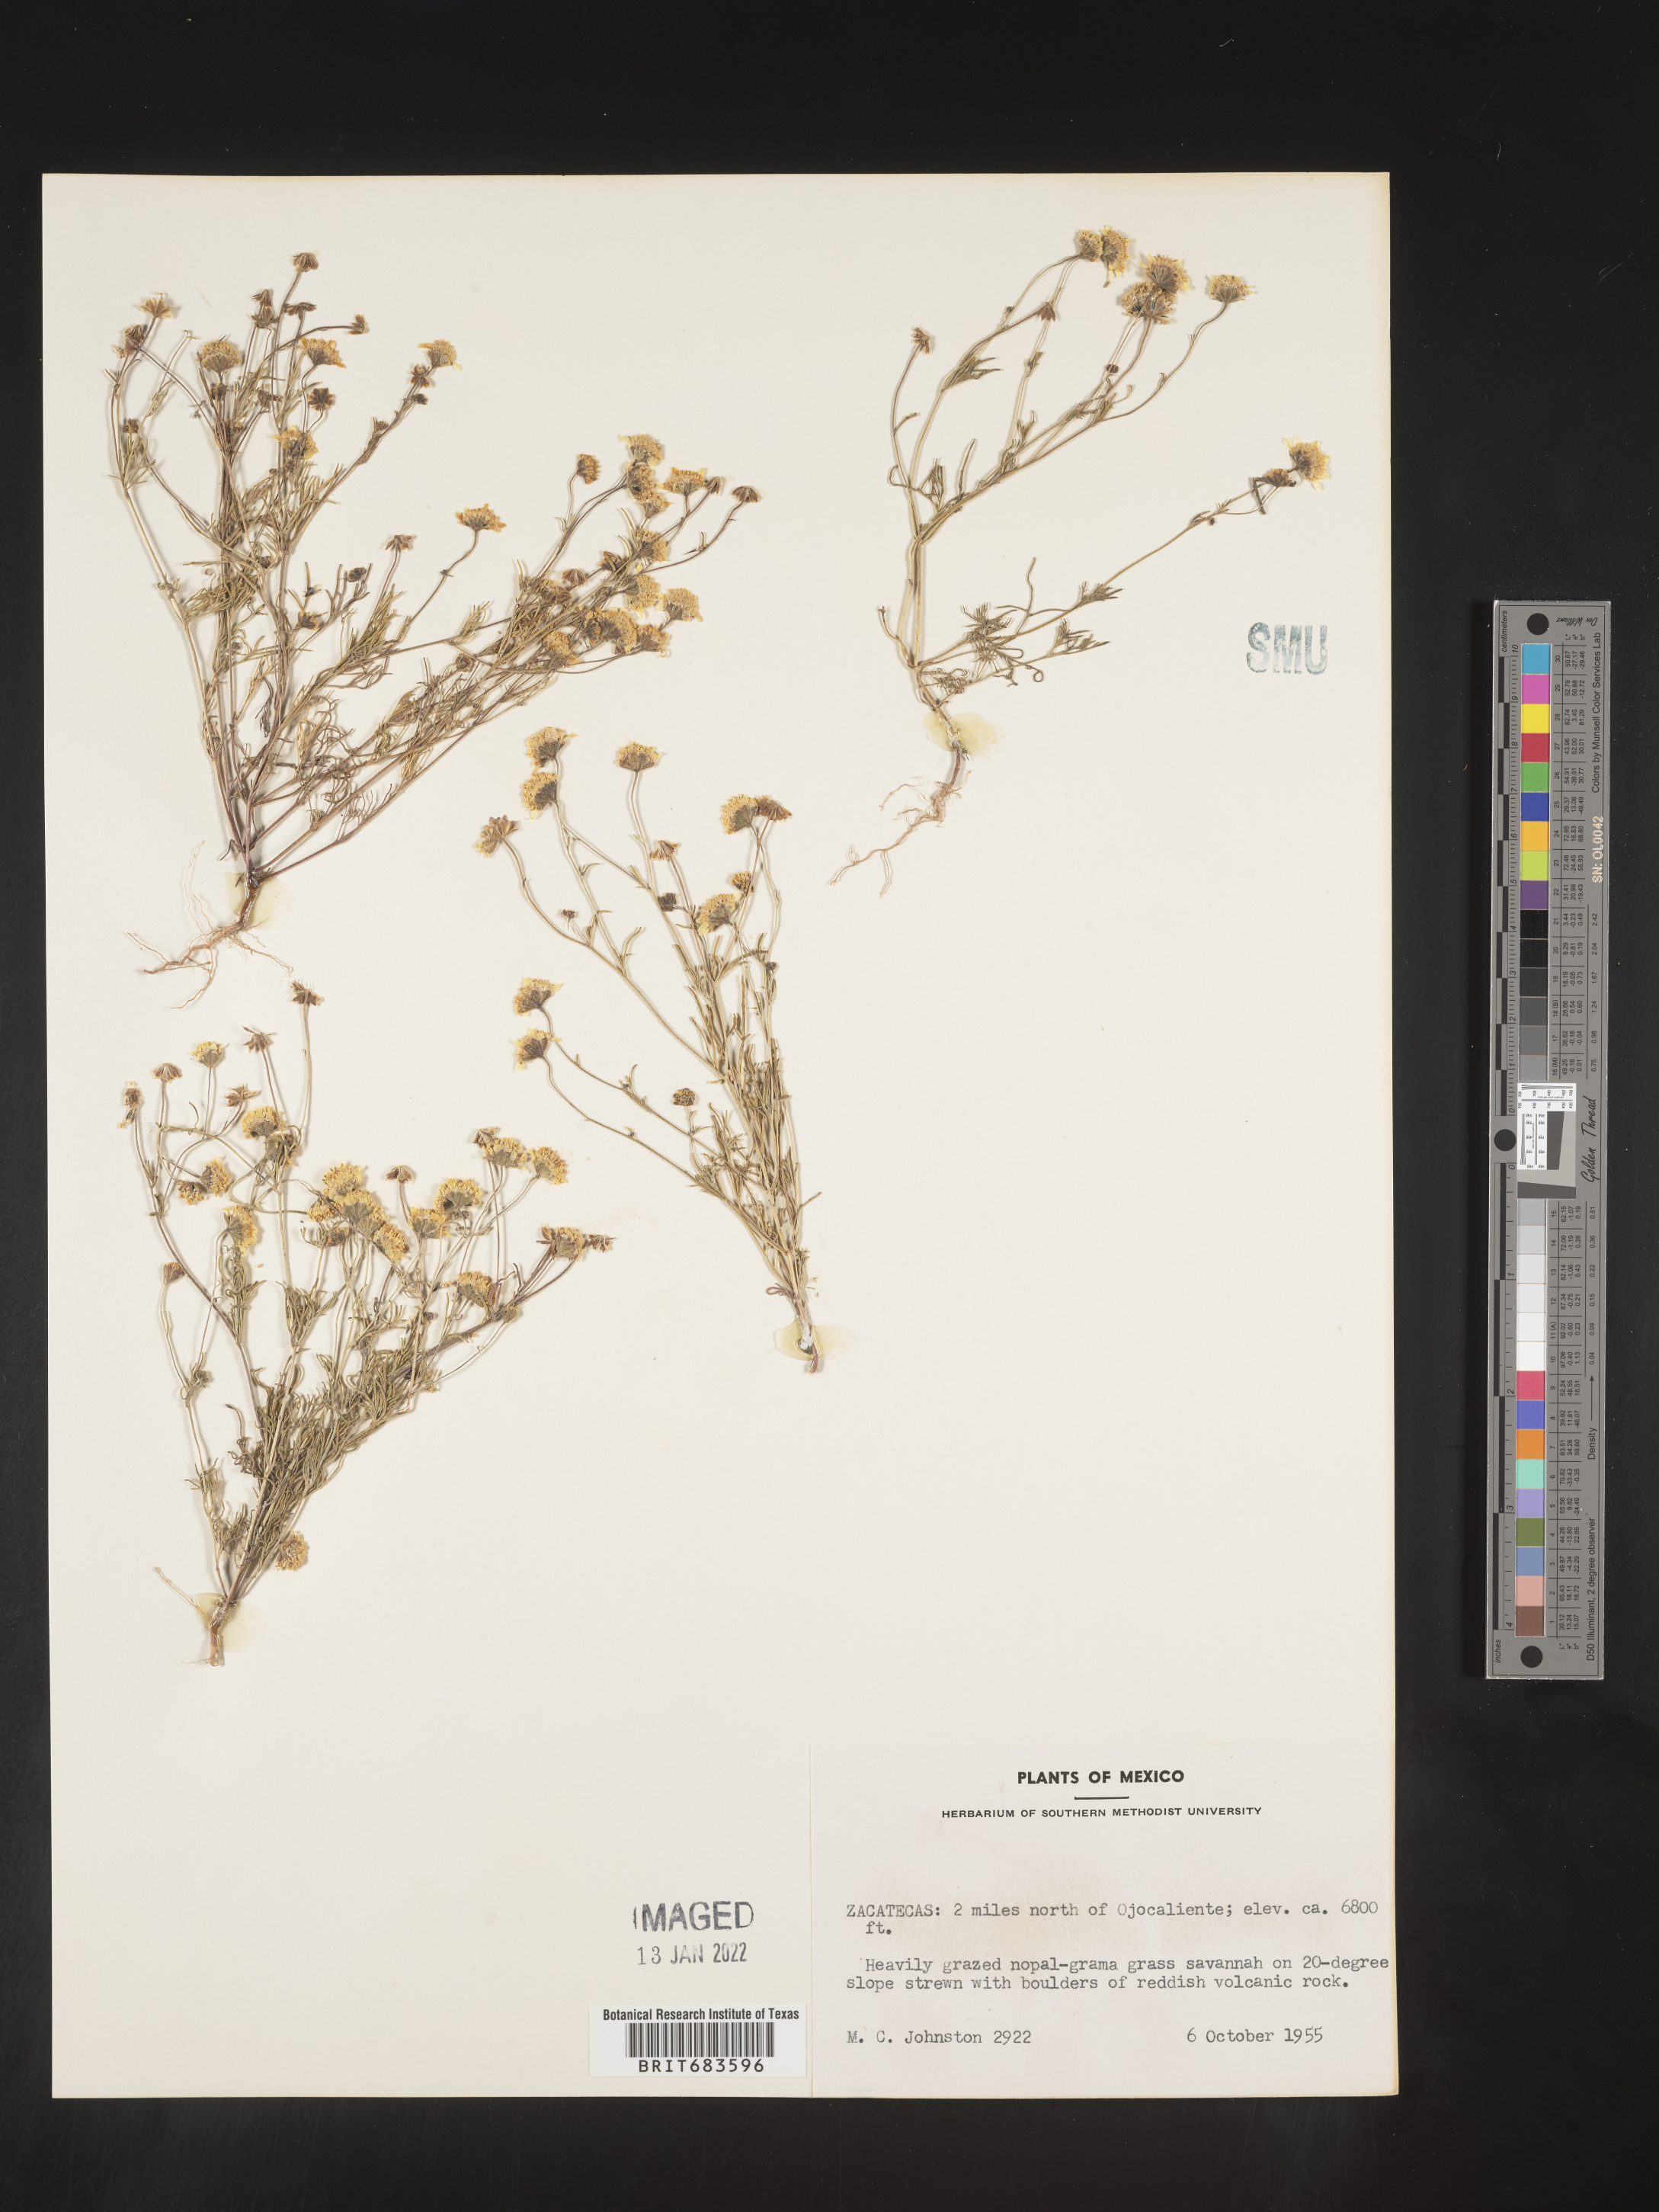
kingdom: Plantae
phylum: Tracheophyta
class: Magnoliopsida
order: Asterales
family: Asteraceae
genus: Bahia
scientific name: Bahia
